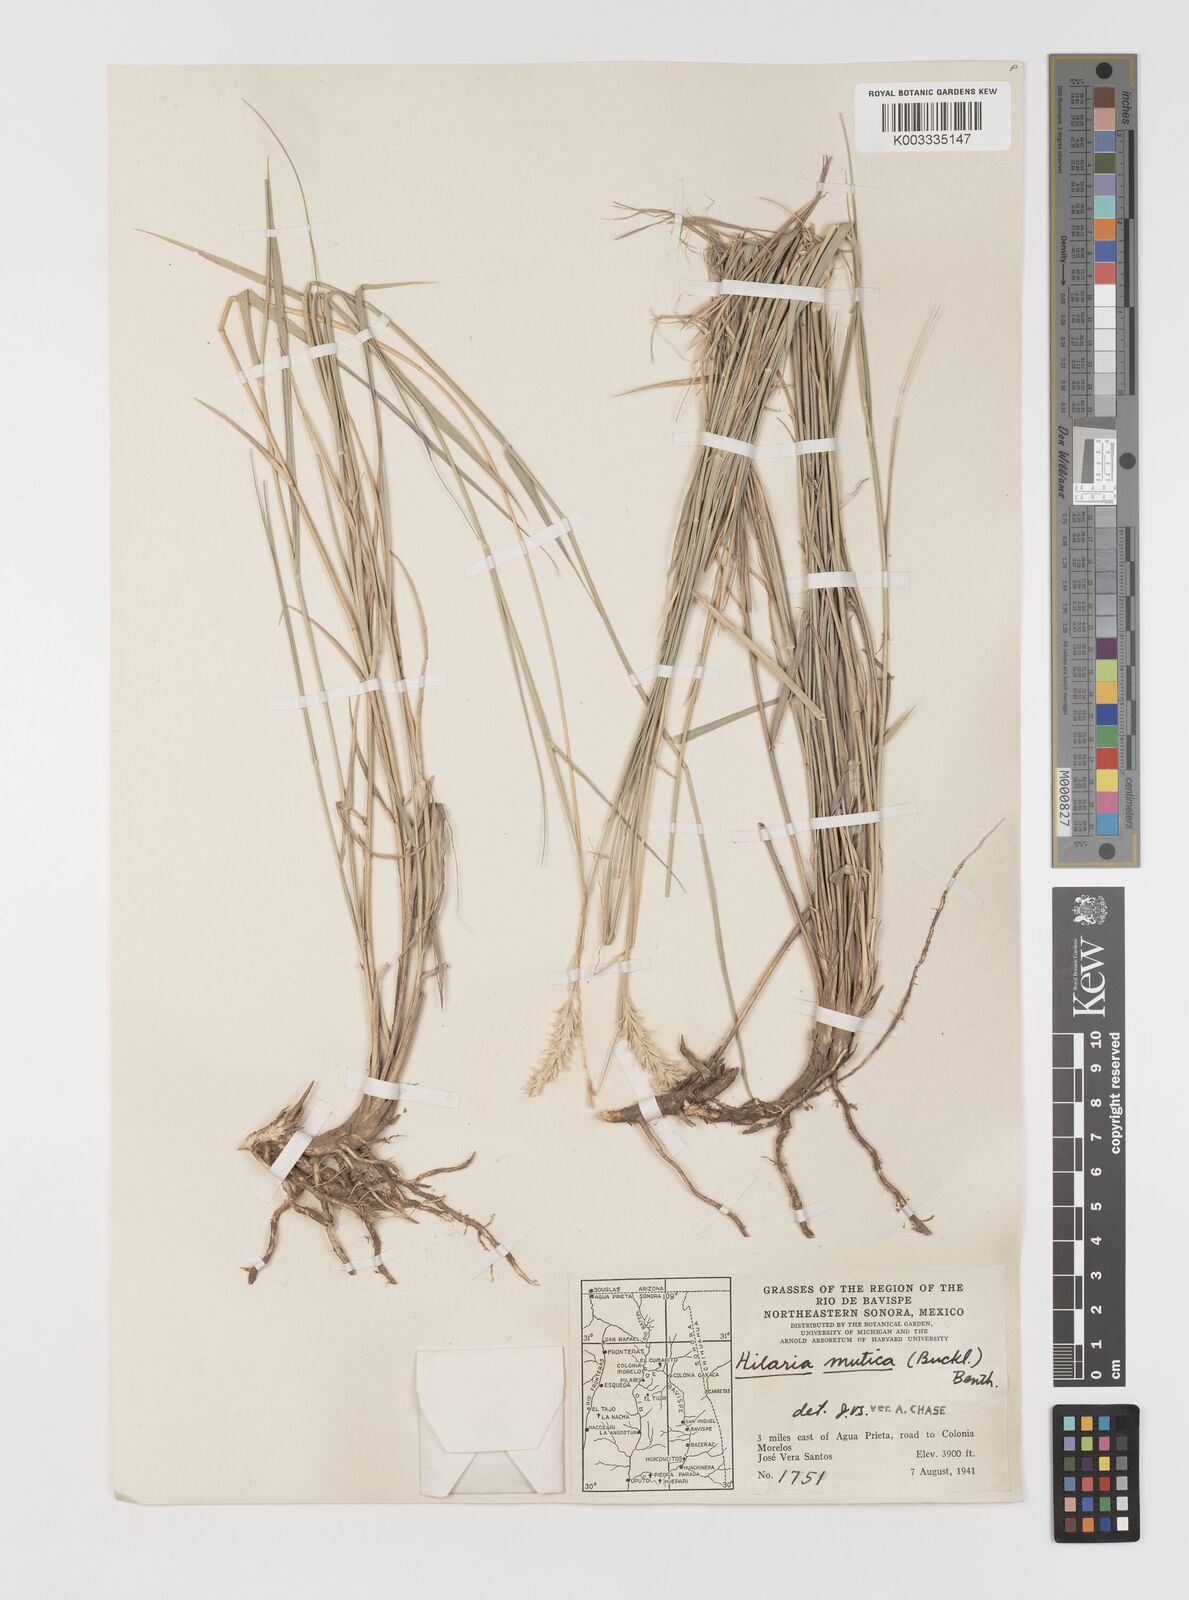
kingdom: Plantae
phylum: Tracheophyta
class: Liliopsida
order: Poales
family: Poaceae
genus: Hilaria
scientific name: Hilaria mutica
